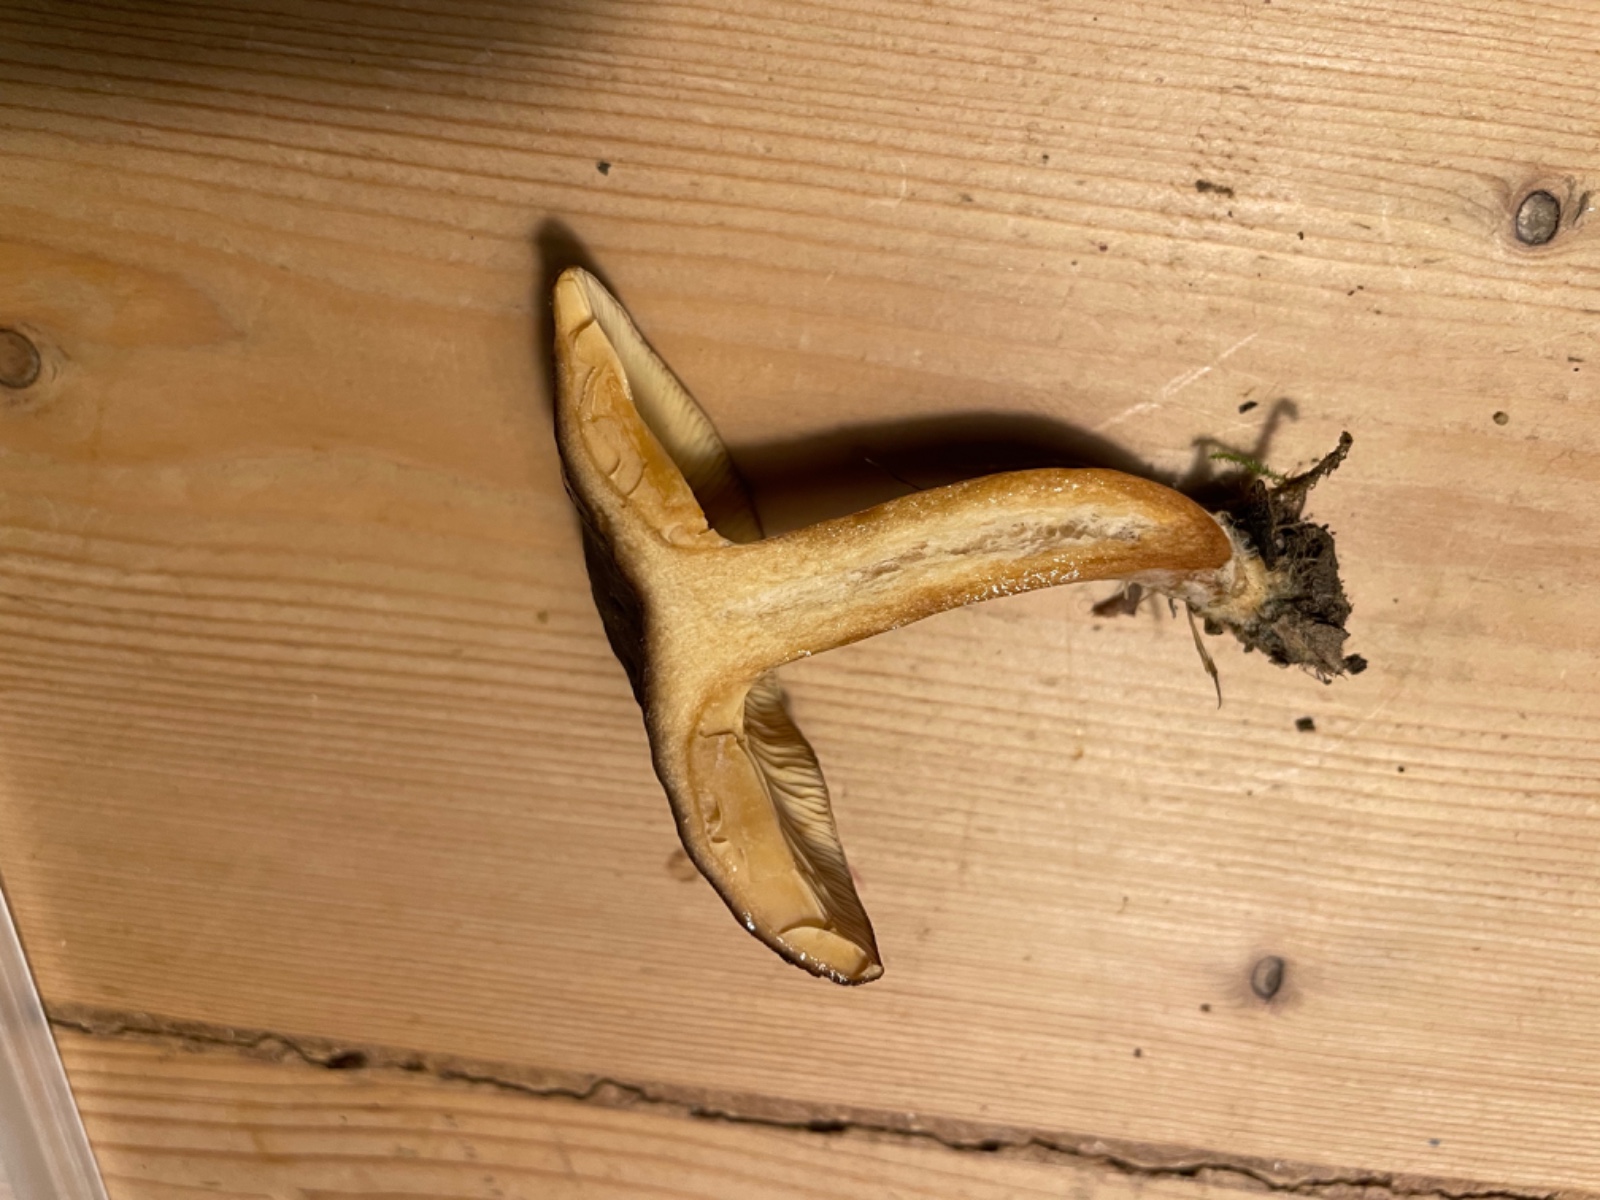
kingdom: Fungi
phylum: Basidiomycota
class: Agaricomycetes
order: Russulales
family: Russulaceae
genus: Lactarius
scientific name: Lactarius serifluus
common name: tæge-mælkehat
